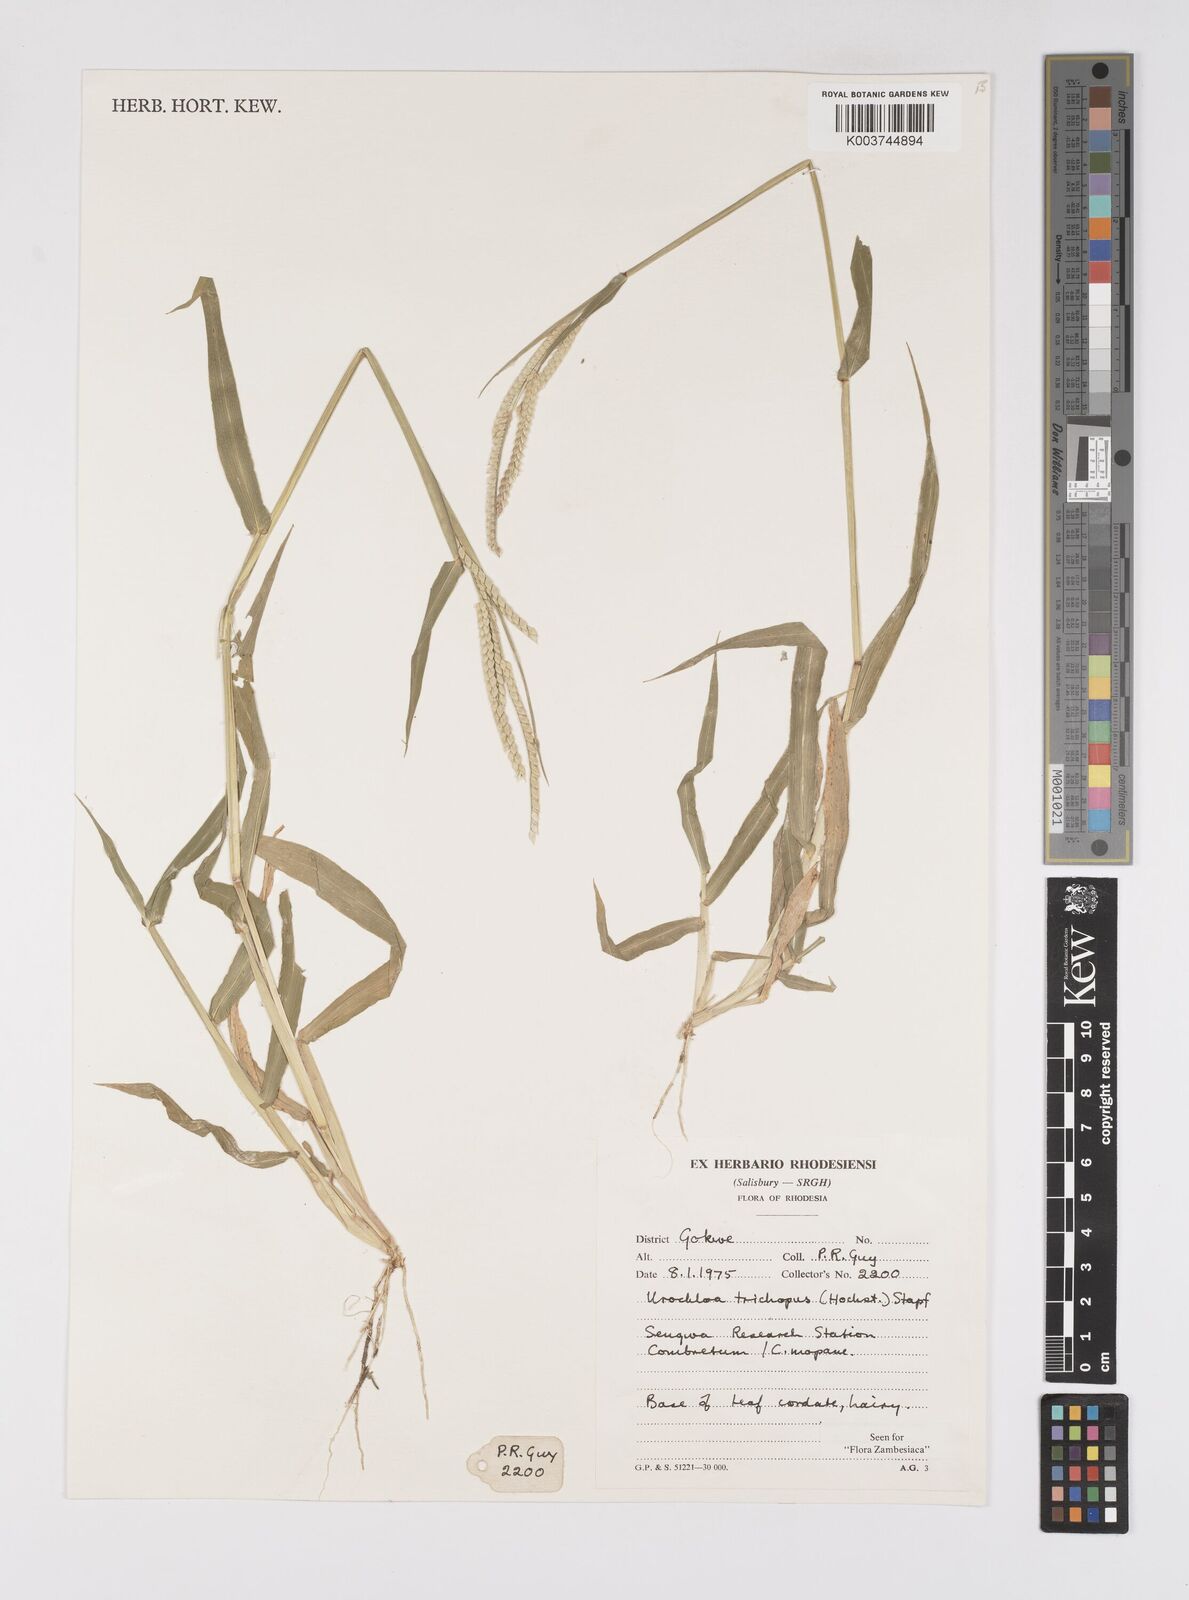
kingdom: Plantae
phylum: Tracheophyta
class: Liliopsida
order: Poales
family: Poaceae
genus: Urochloa
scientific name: Urochloa trichopus
